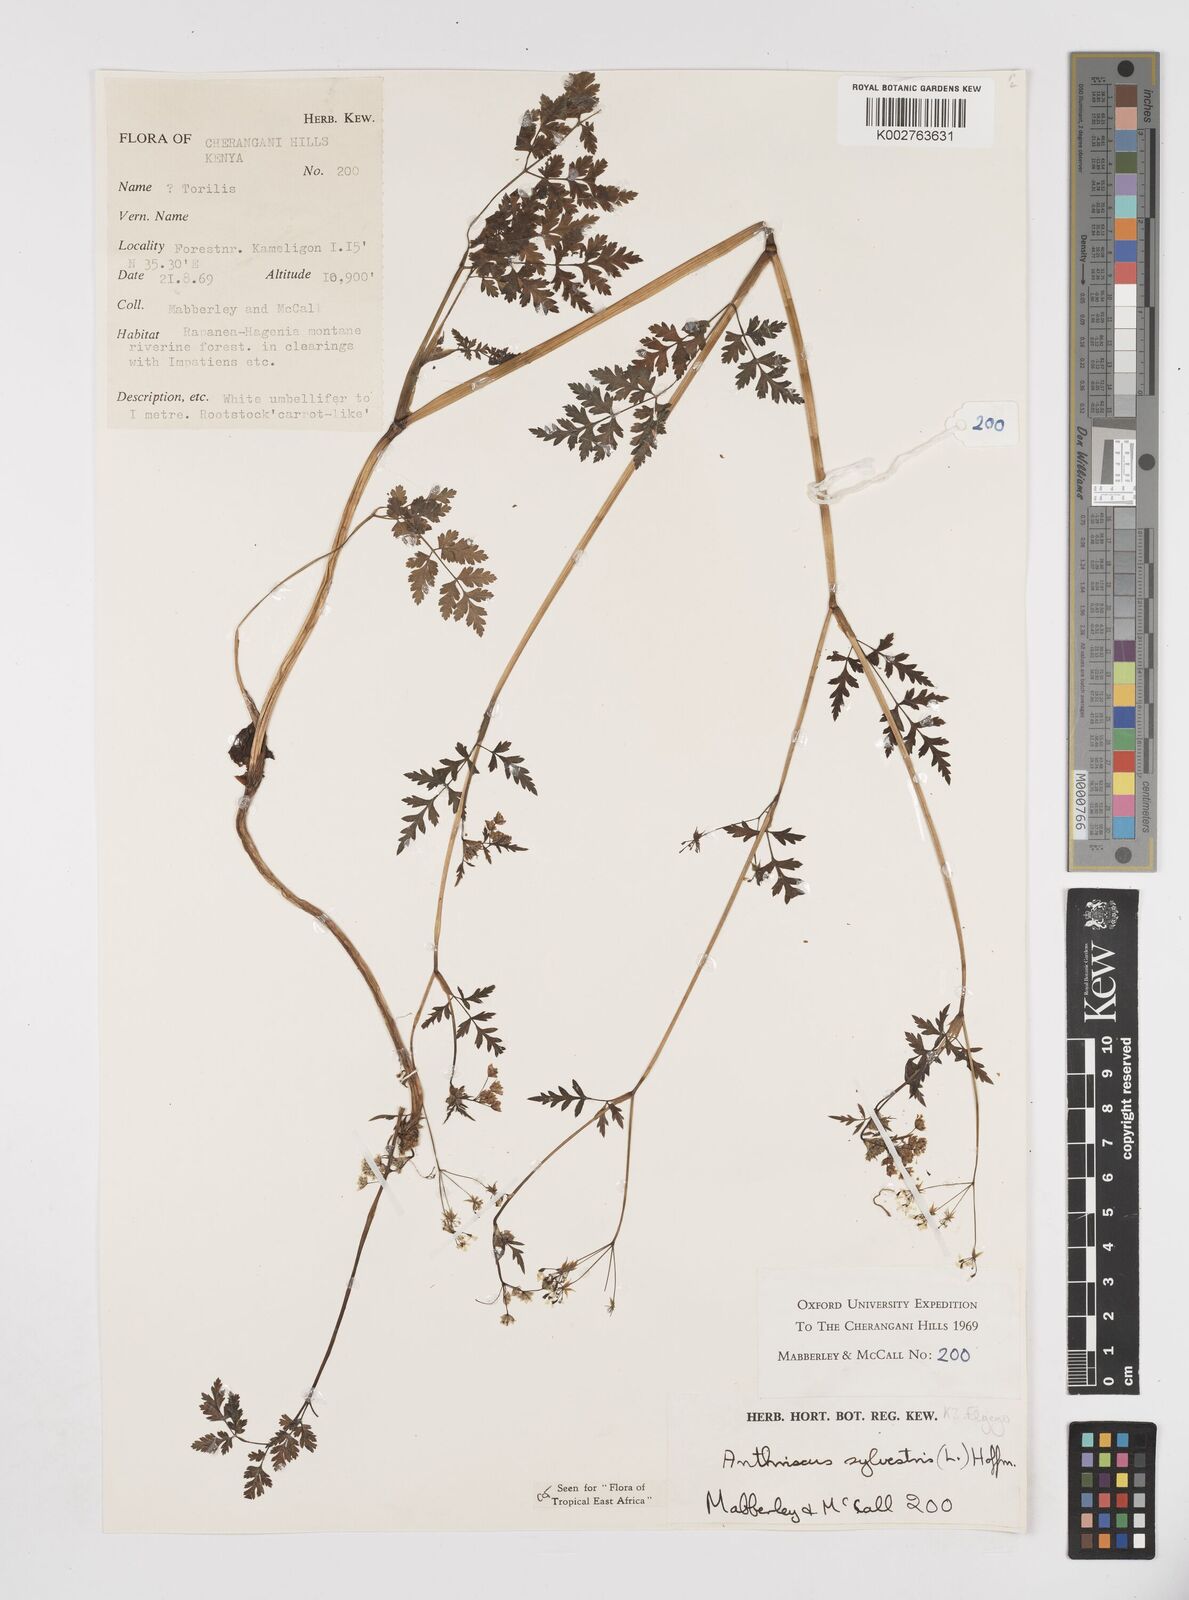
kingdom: Plantae
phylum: Tracheophyta
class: Magnoliopsida
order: Apiales
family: Apiaceae
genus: Anthriscus
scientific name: Anthriscus sylvestris
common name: Cow parsley
